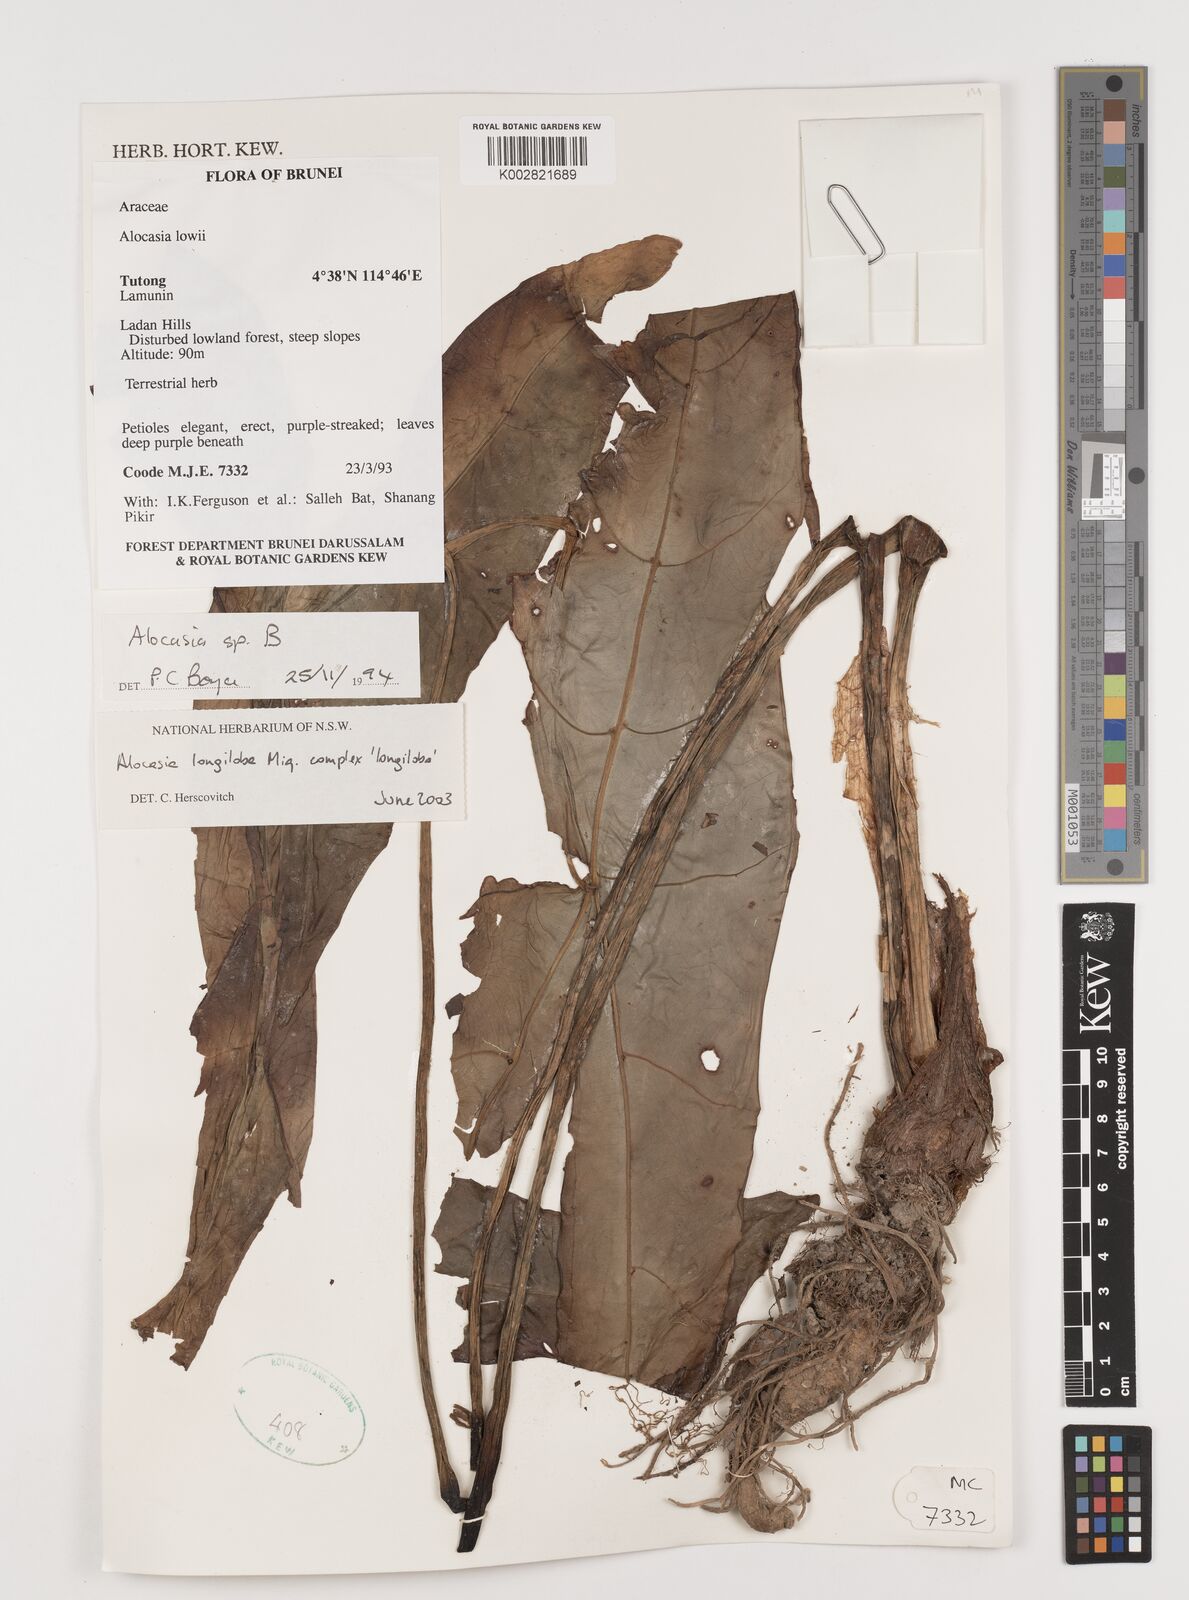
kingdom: Plantae
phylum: Tracheophyta
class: Liliopsida
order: Alismatales
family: Araceae
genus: Alocasia
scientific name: Alocasia longiloba
